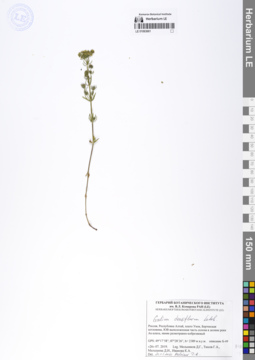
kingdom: Plantae
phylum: Tracheophyta
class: Magnoliopsida
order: Gentianales
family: Rubiaceae
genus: Galium
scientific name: Galium densiflorum
